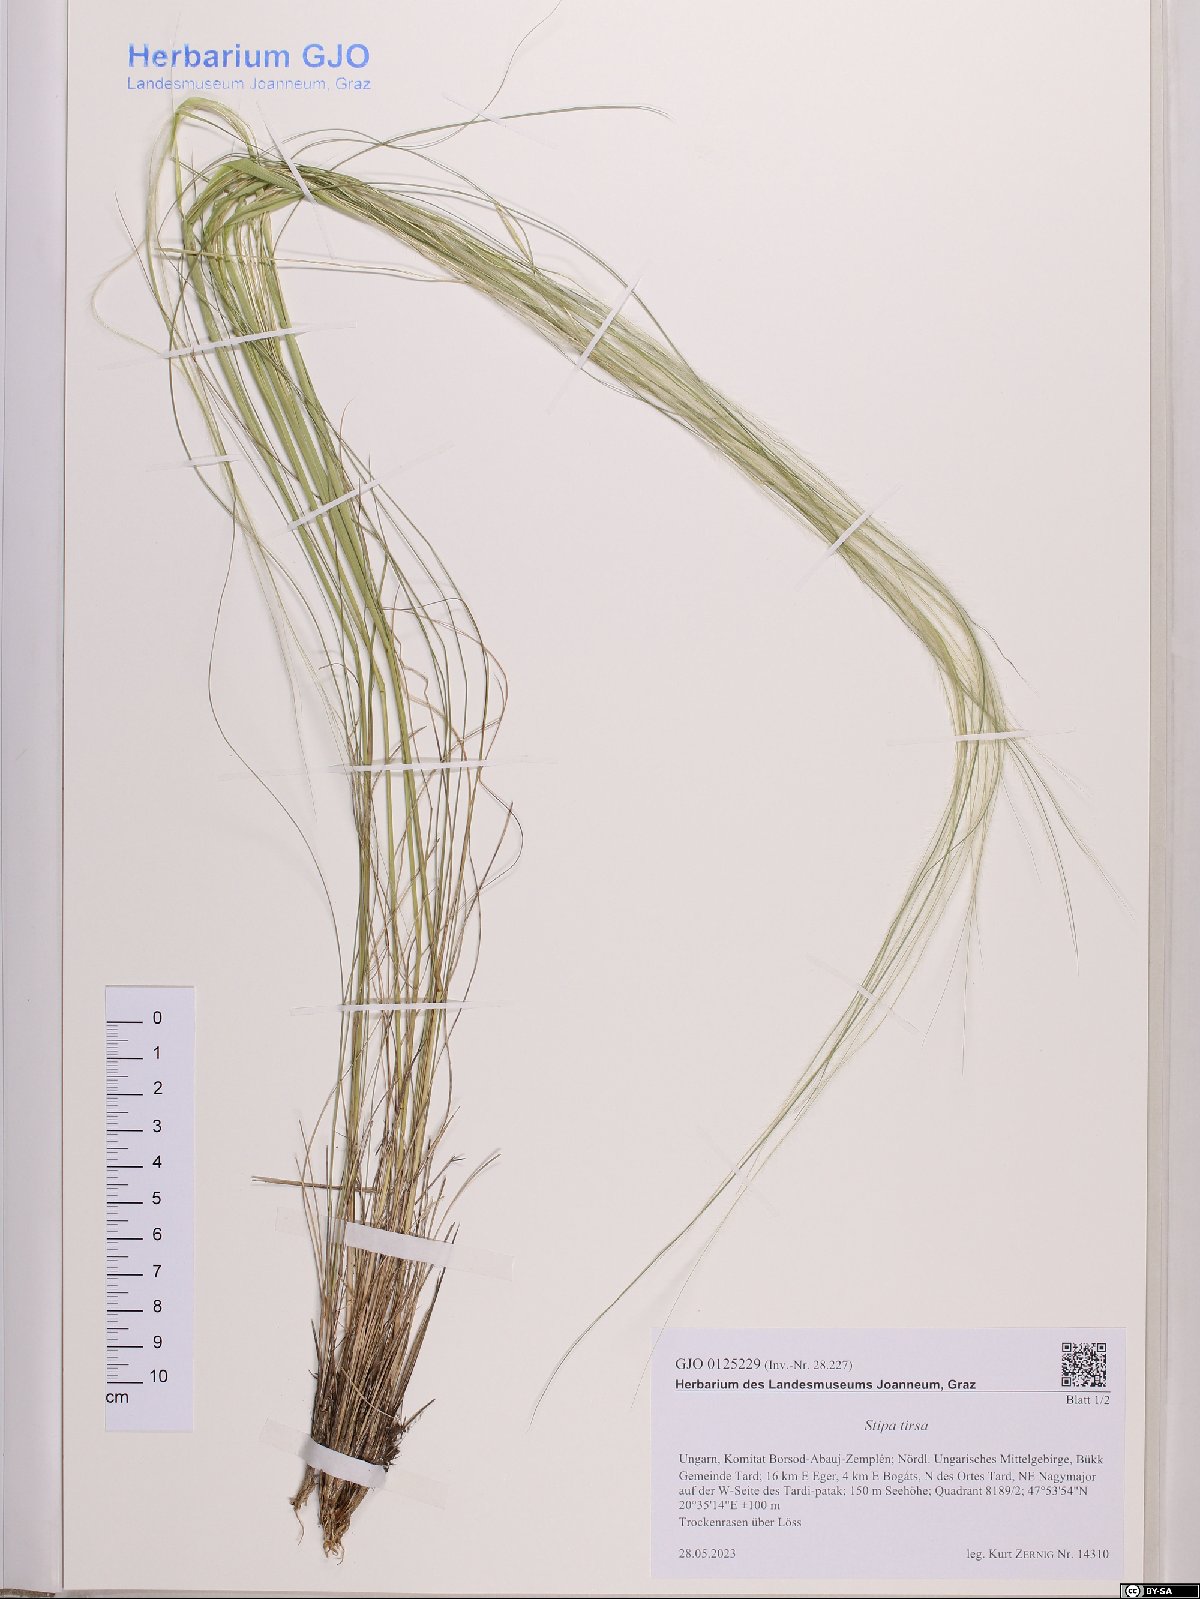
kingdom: Plantae
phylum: Tracheophyta
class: Liliopsida
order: Poales
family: Poaceae
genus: Stipa
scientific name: Stipa tirsa
